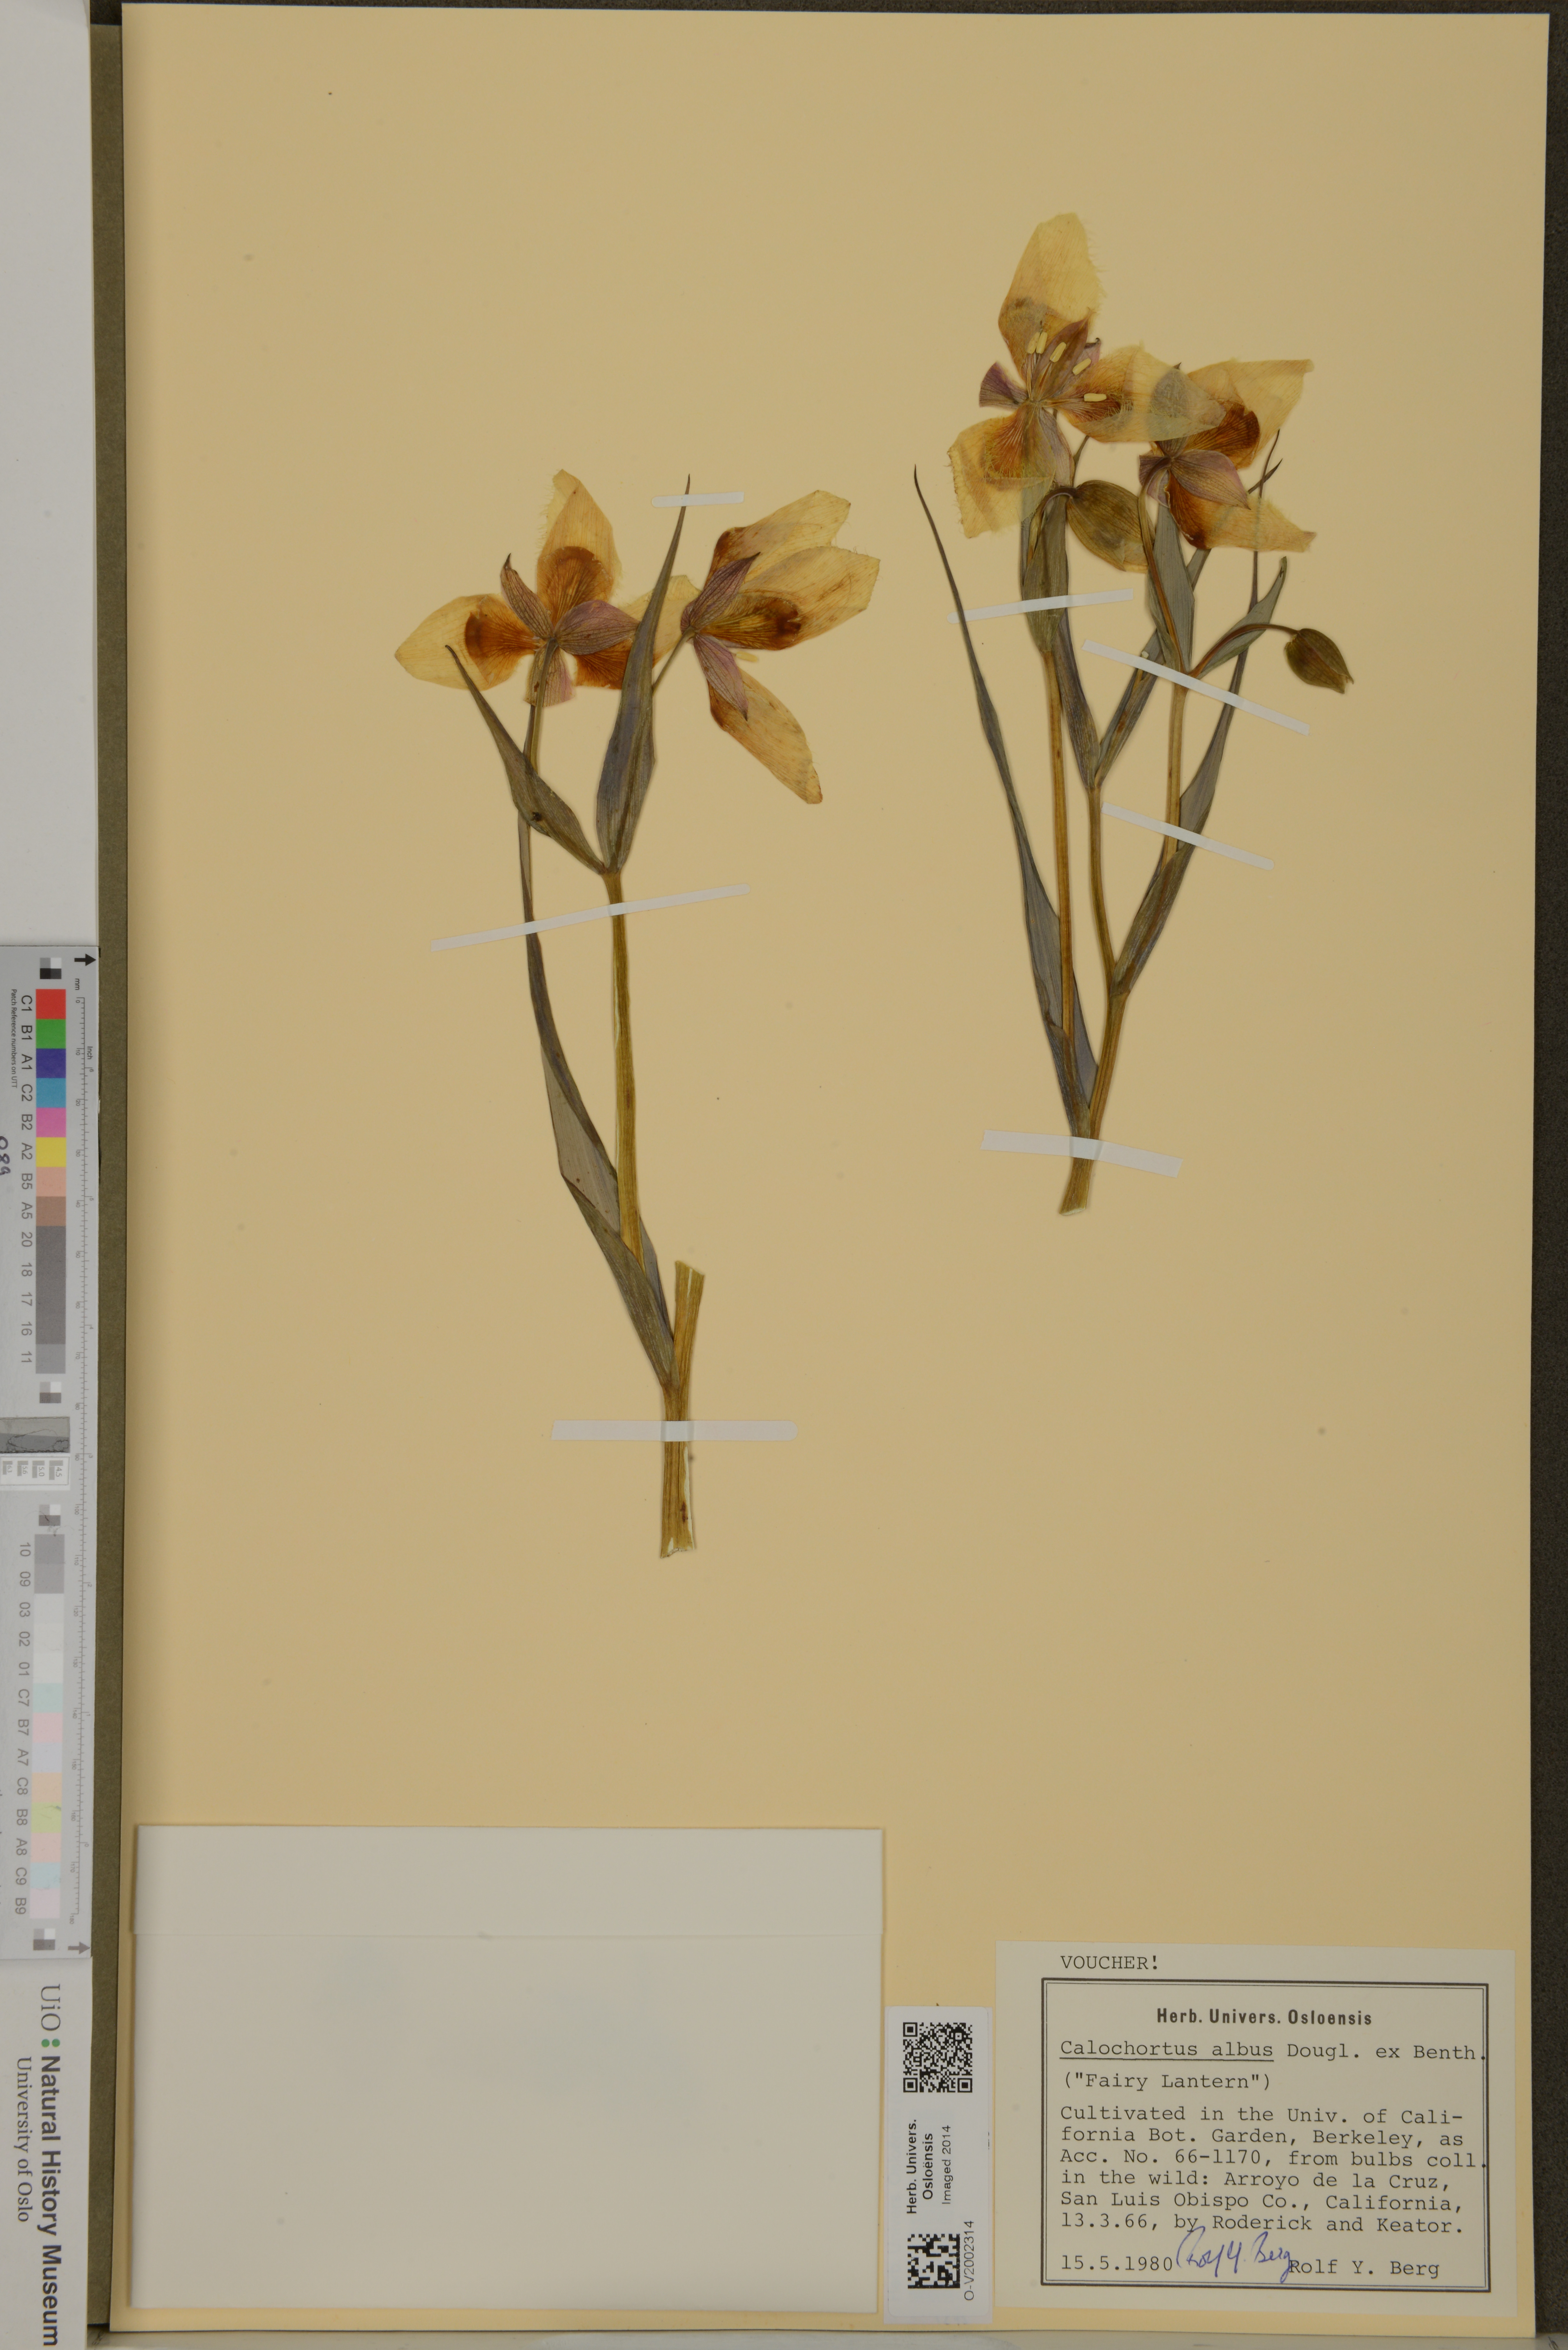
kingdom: Plantae
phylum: Tracheophyta
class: Liliopsida
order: Liliales
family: Liliaceae
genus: Calochortus
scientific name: Calochortus albus
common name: Fairy-lantern
